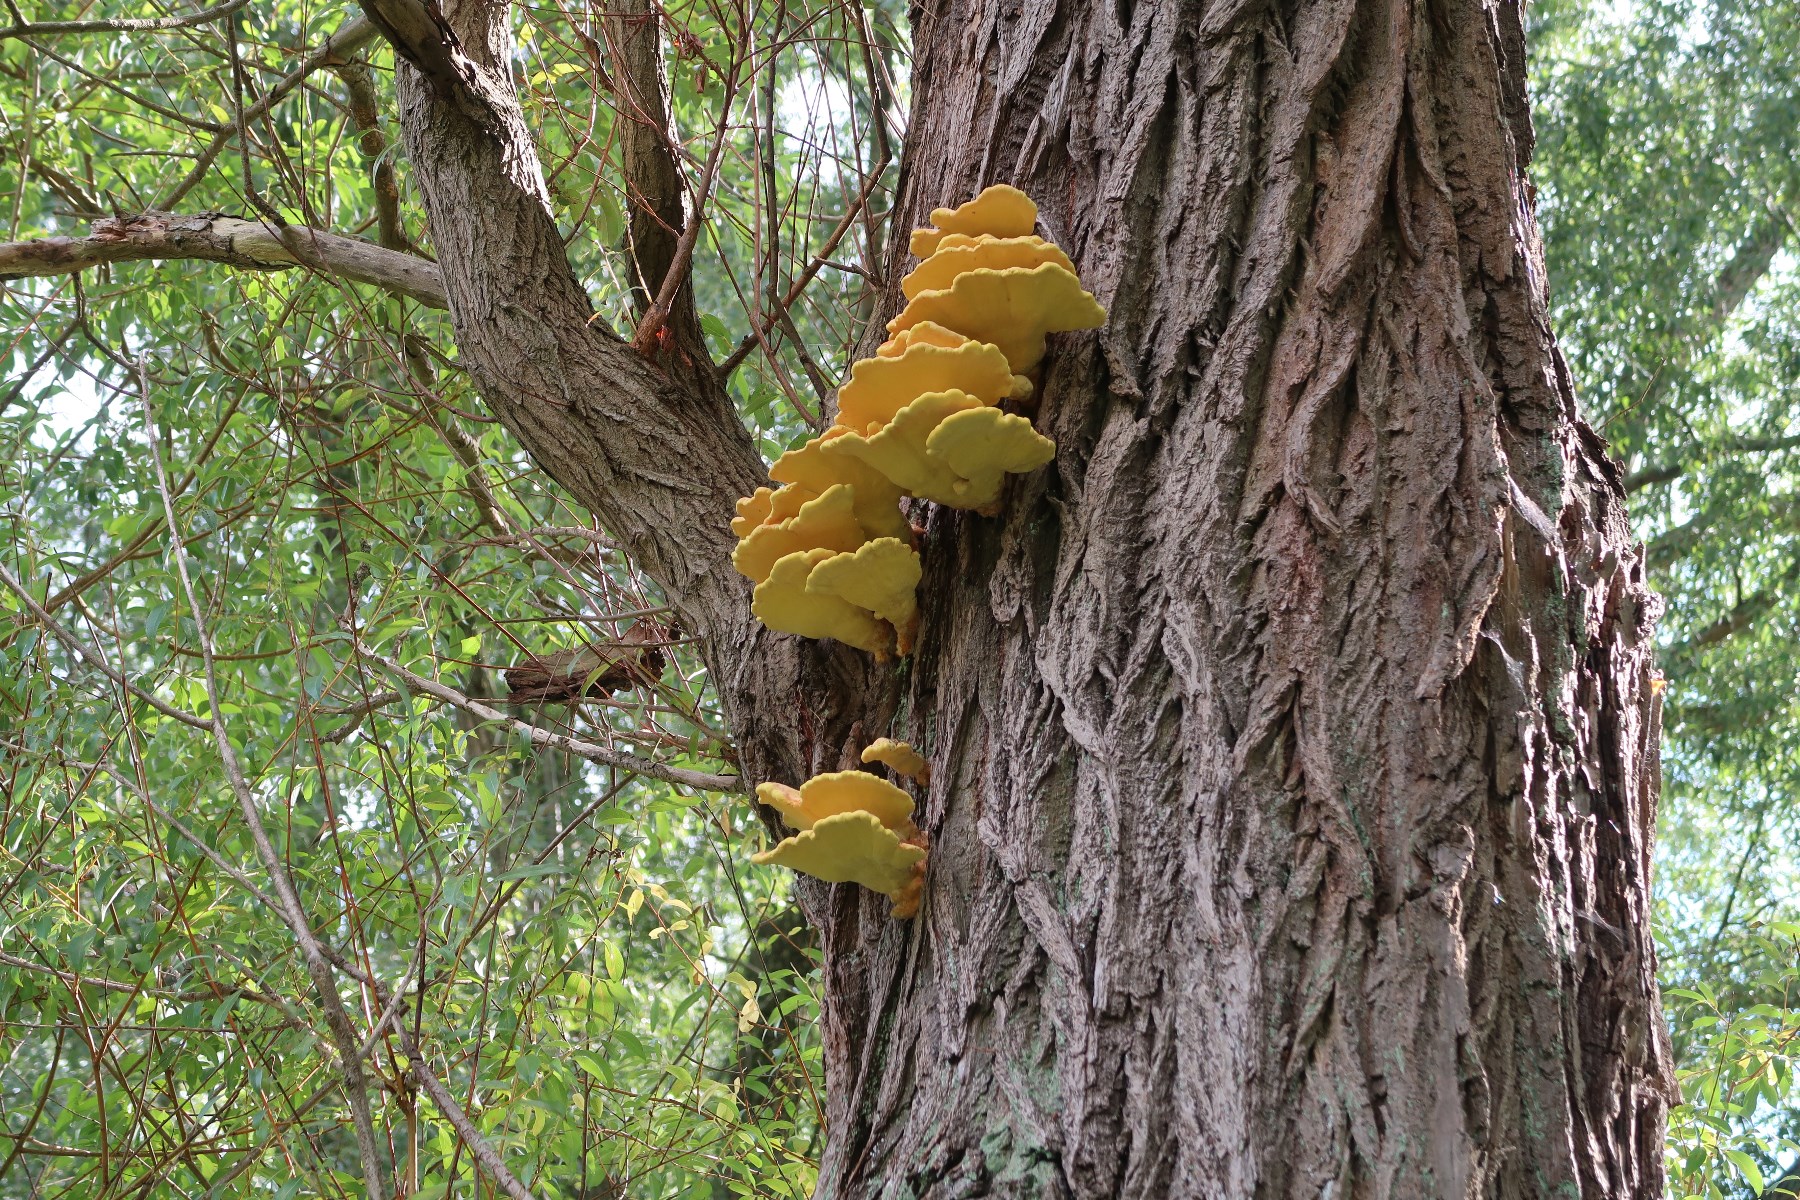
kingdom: Fungi
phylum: Basidiomycota
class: Agaricomycetes
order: Polyporales
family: Laetiporaceae
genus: Laetiporus
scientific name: Laetiporus sulphureus
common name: svovlporesvamp
